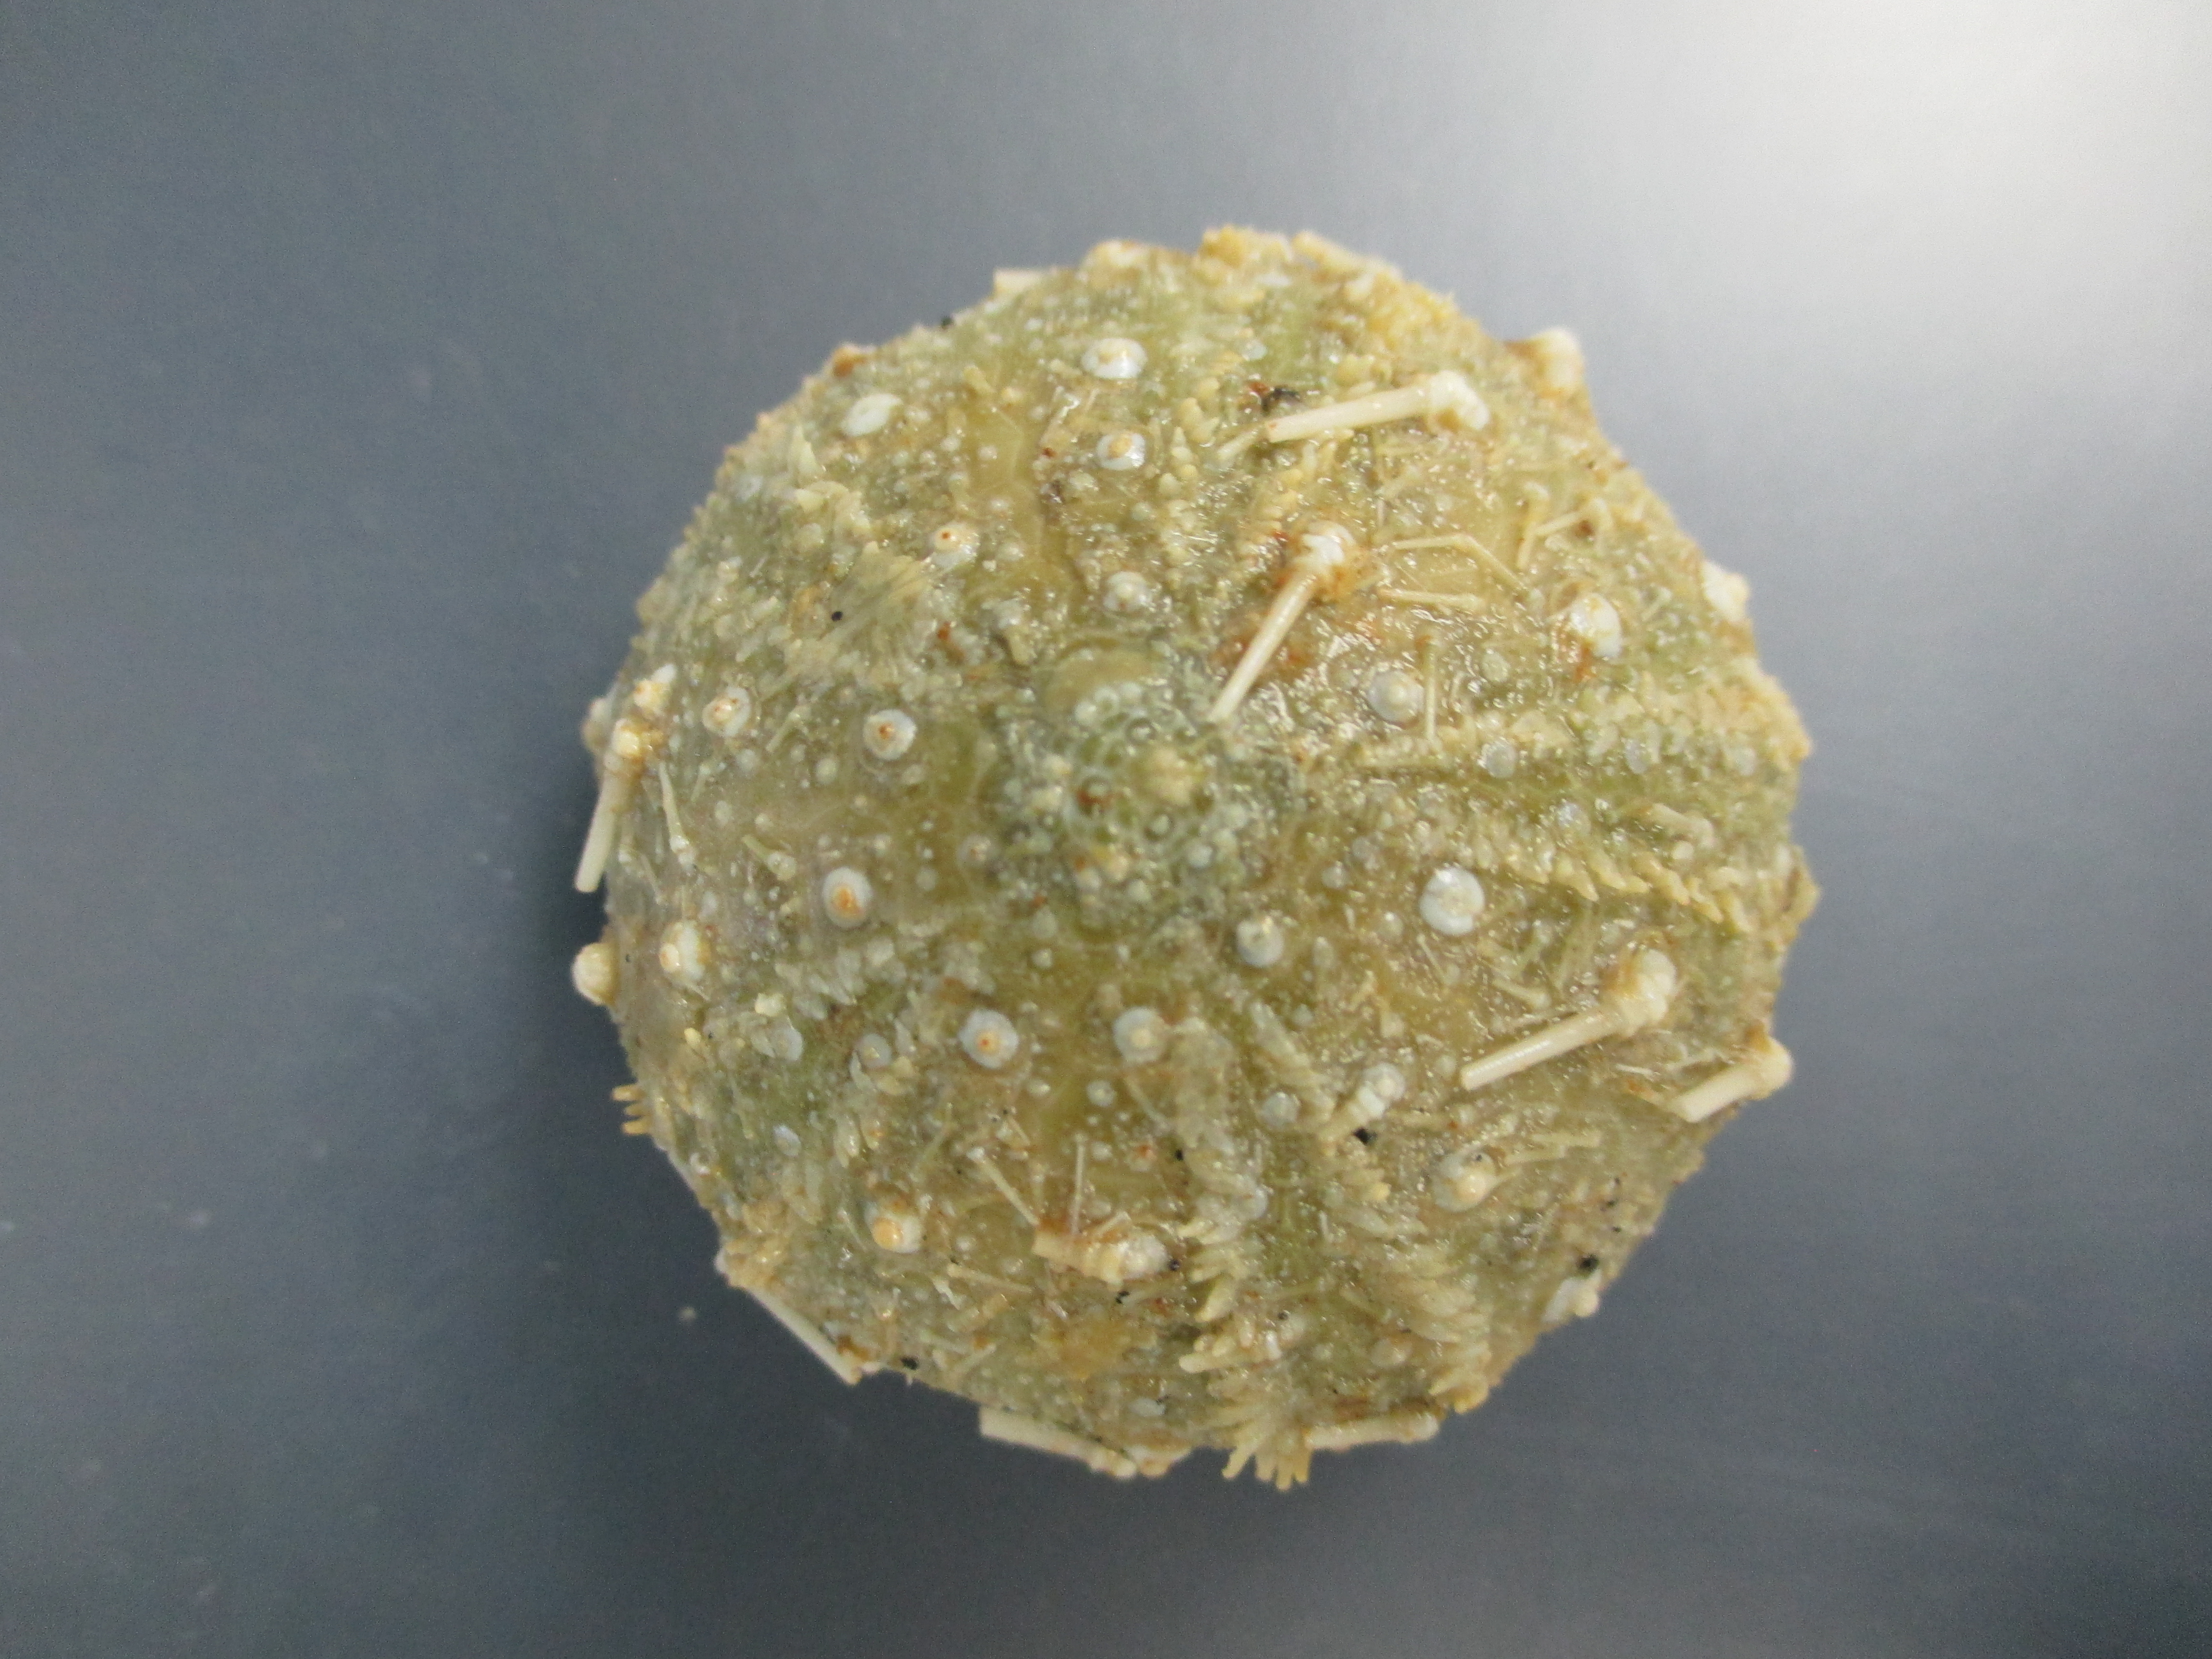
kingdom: Animalia
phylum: Echinodermata
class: Echinoidea
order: Camarodonta
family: Echinidae
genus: Echinus
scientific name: Echinus gilchristi
